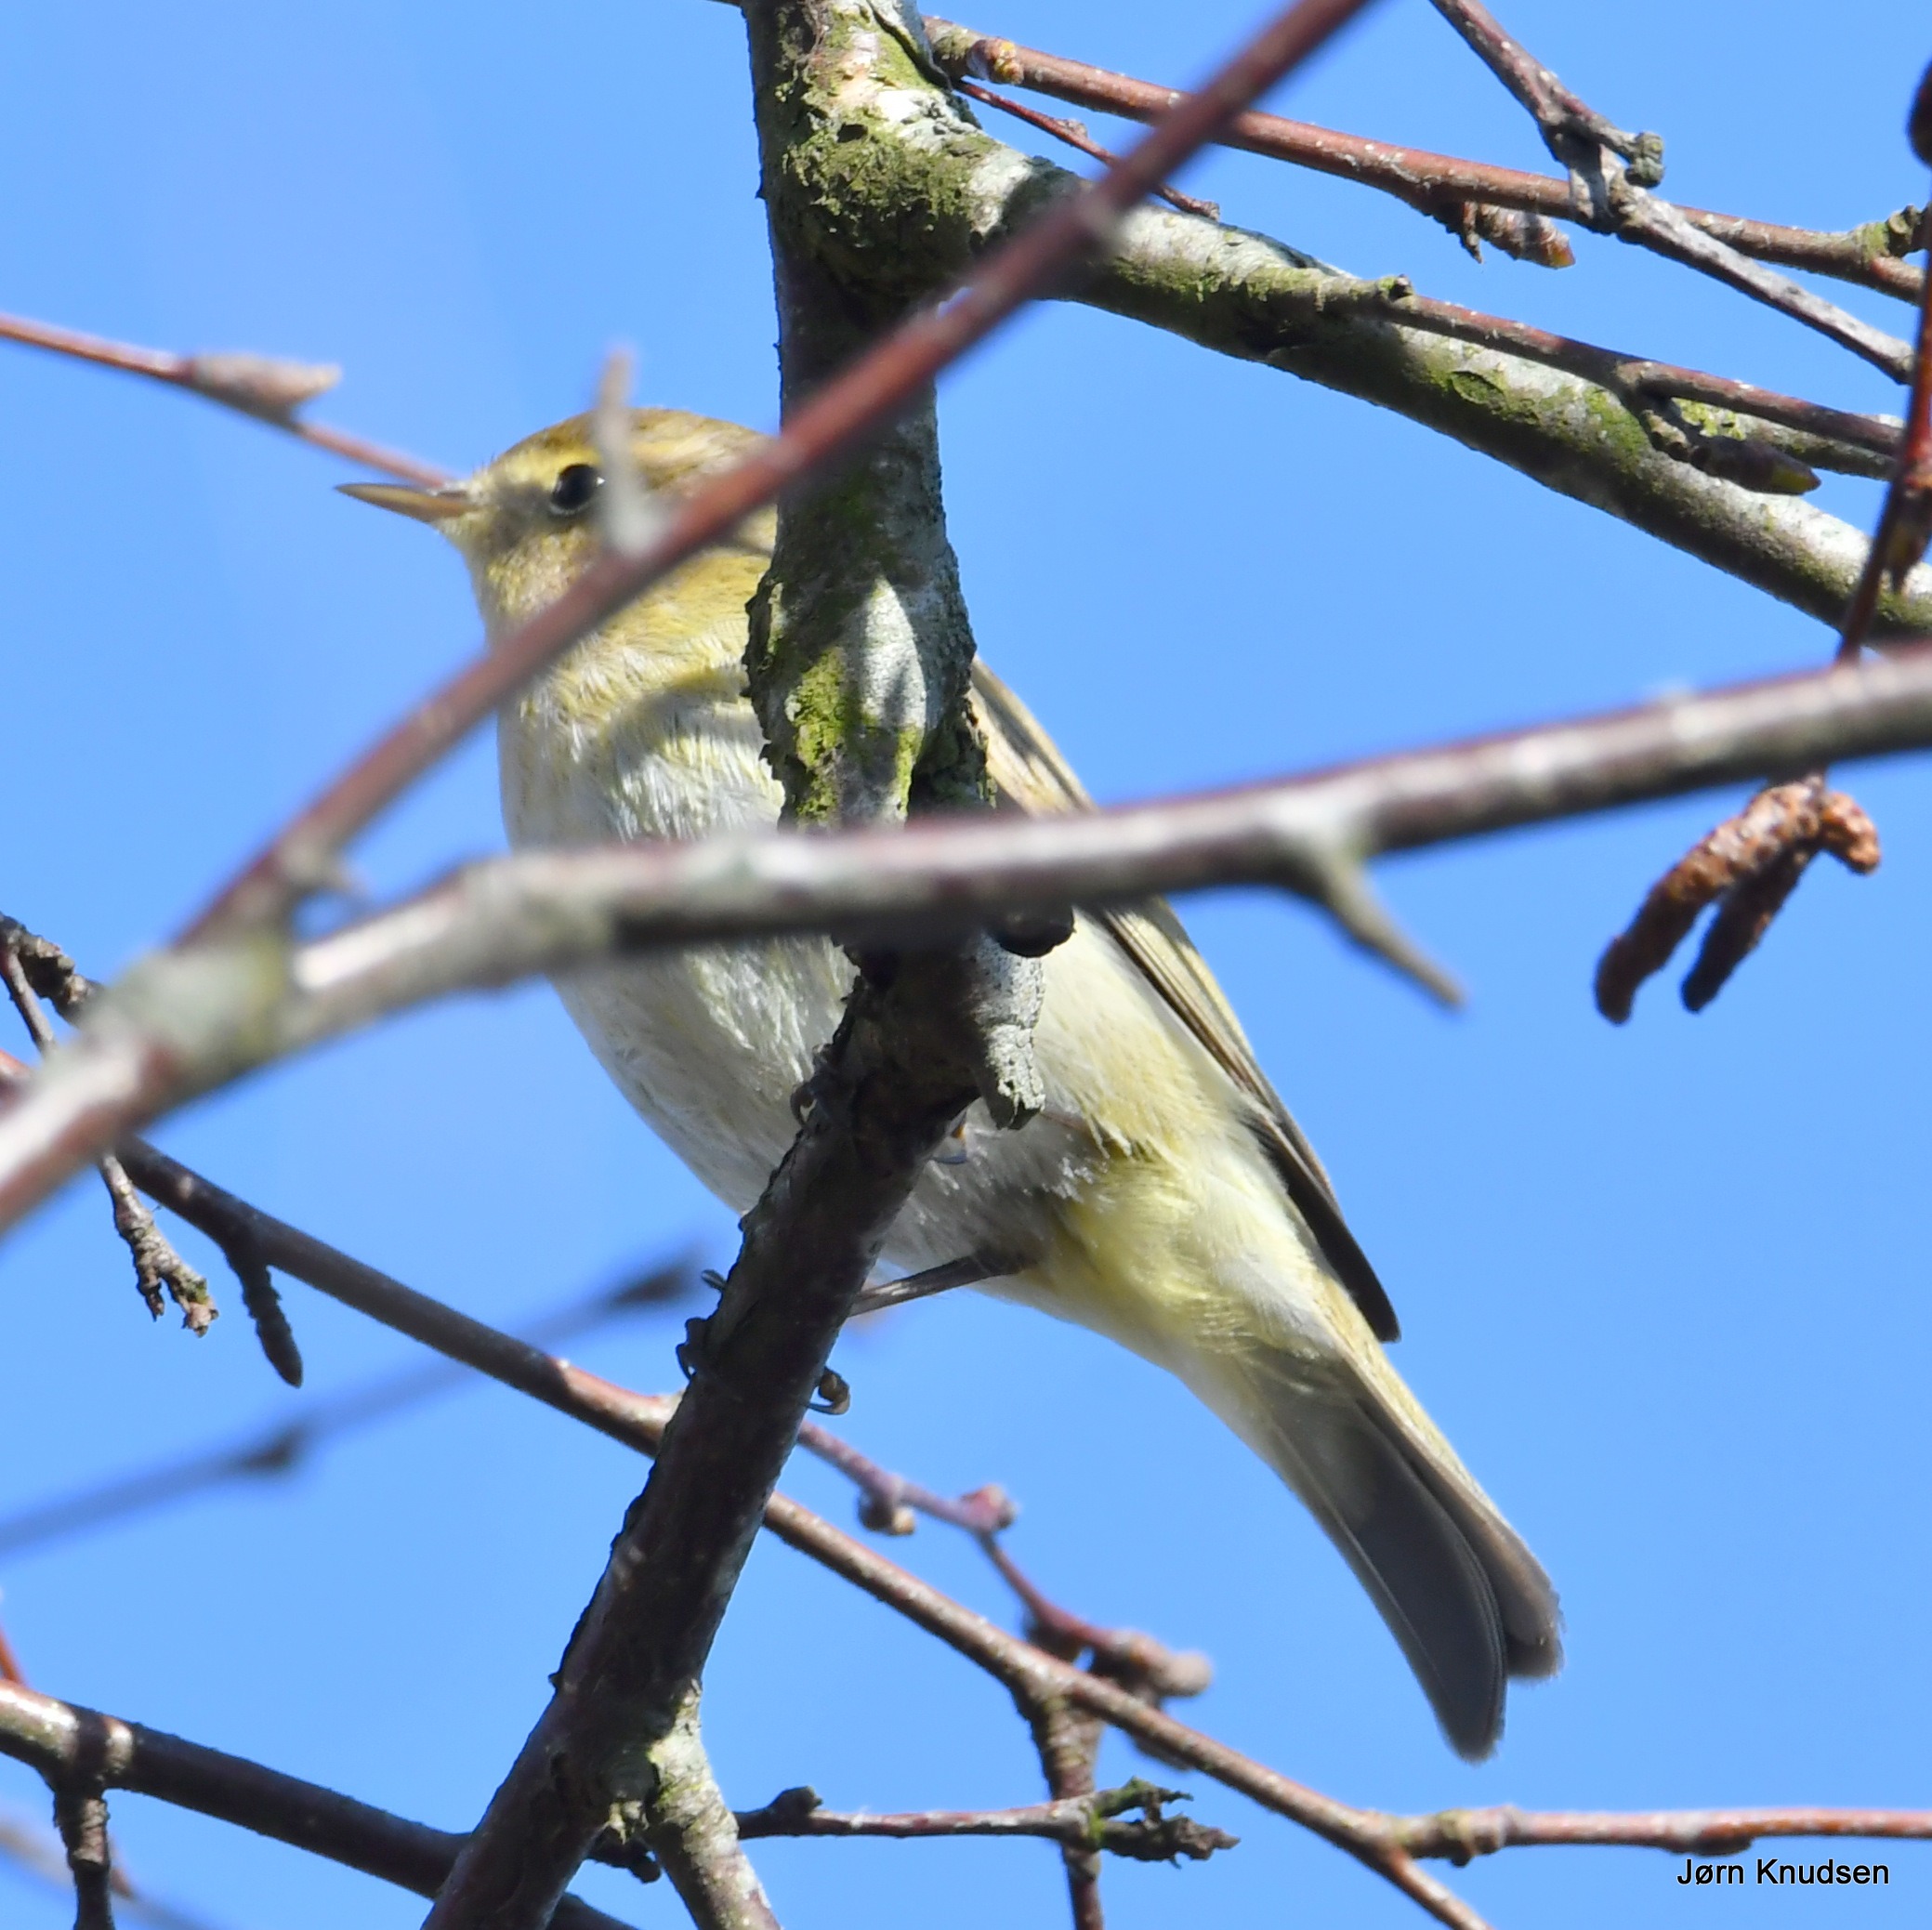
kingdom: Animalia
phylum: Chordata
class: Aves
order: Passeriformes
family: Phylloscopidae
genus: Phylloscopus
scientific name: Phylloscopus collybita
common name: Gransanger
